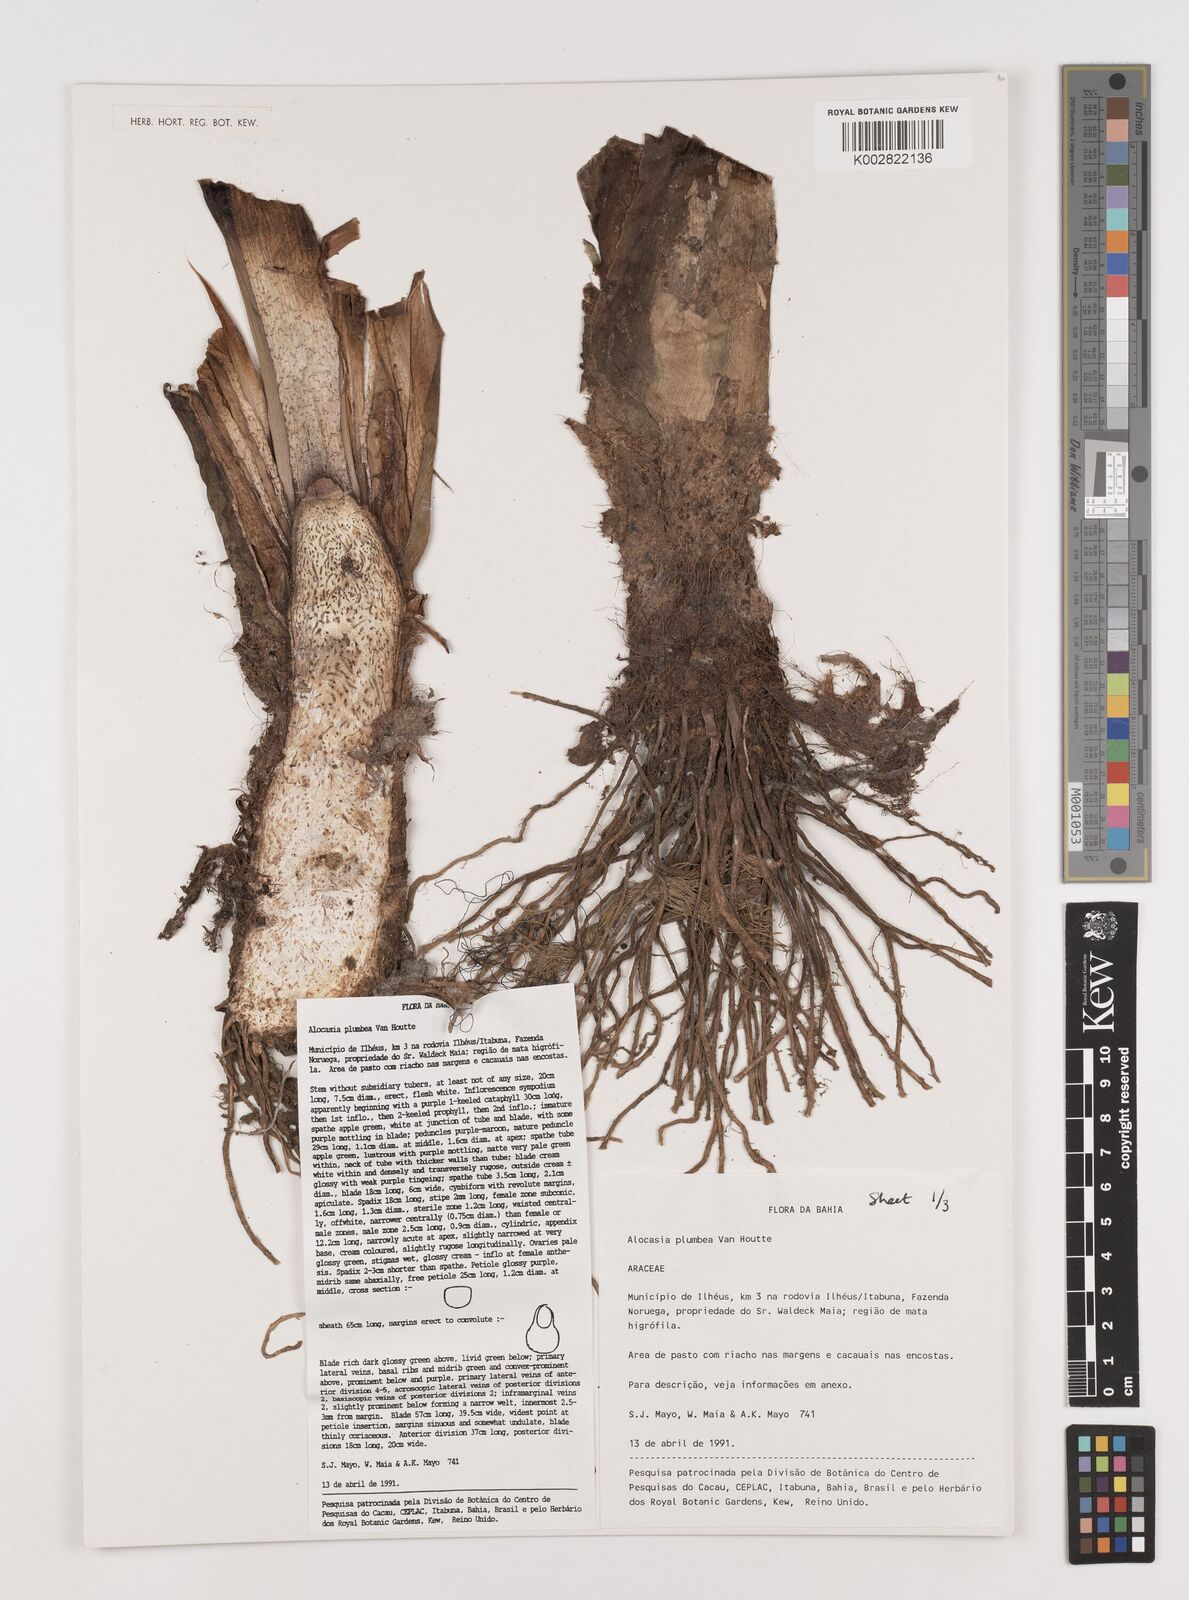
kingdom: Plantae
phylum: Tracheophyta
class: Liliopsida
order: Alismatales
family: Araceae
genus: Alocasia
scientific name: Alocasia macrorrhizos
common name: Giant taro
